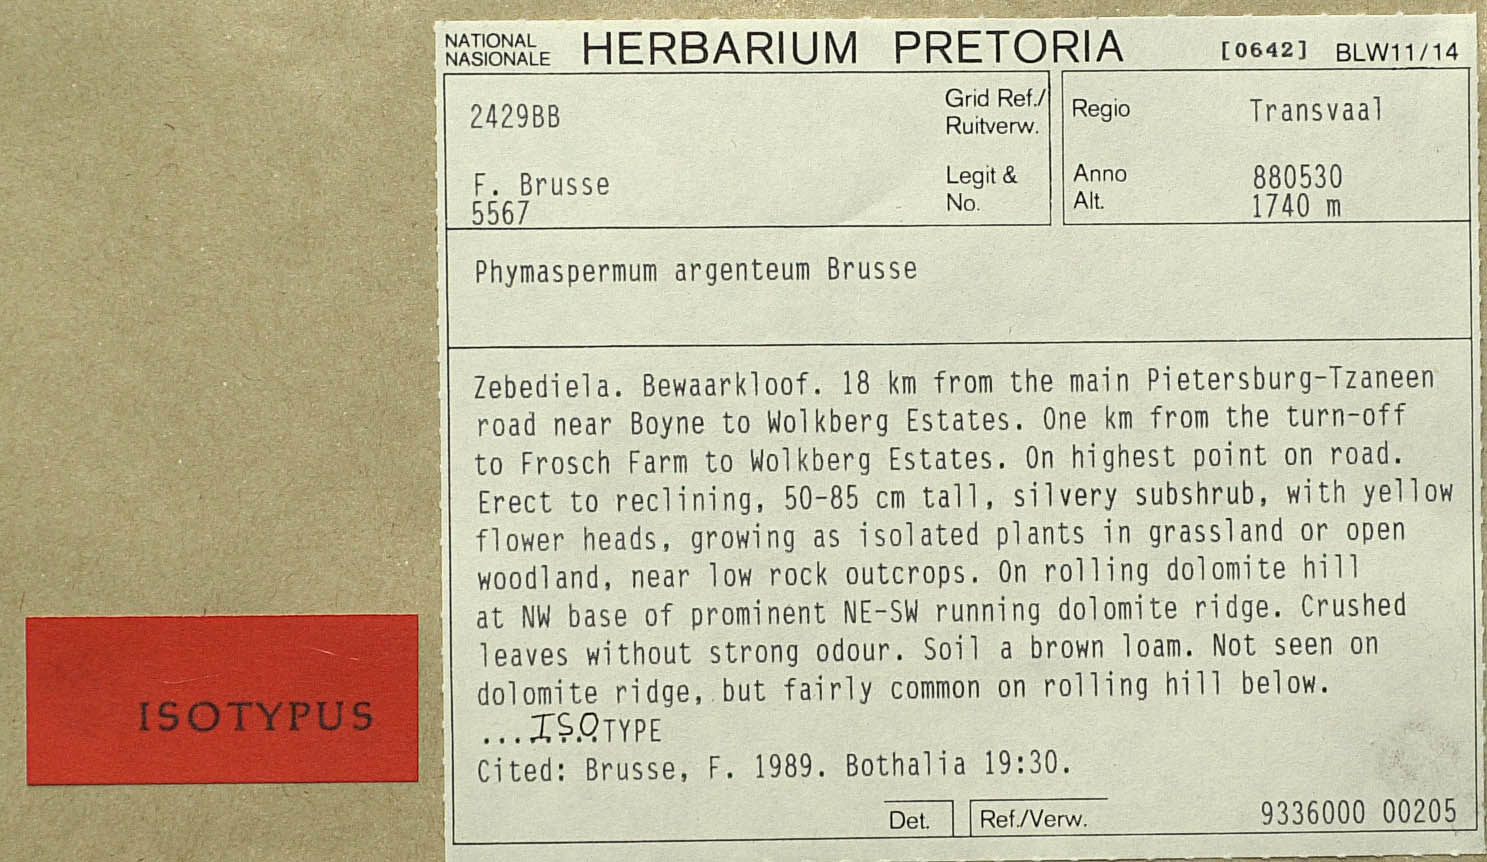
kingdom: Plantae
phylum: Tracheophyta
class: Magnoliopsida
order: Asterales
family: Asteraceae
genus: Phymaspermum
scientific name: Phymaspermum argenteum
